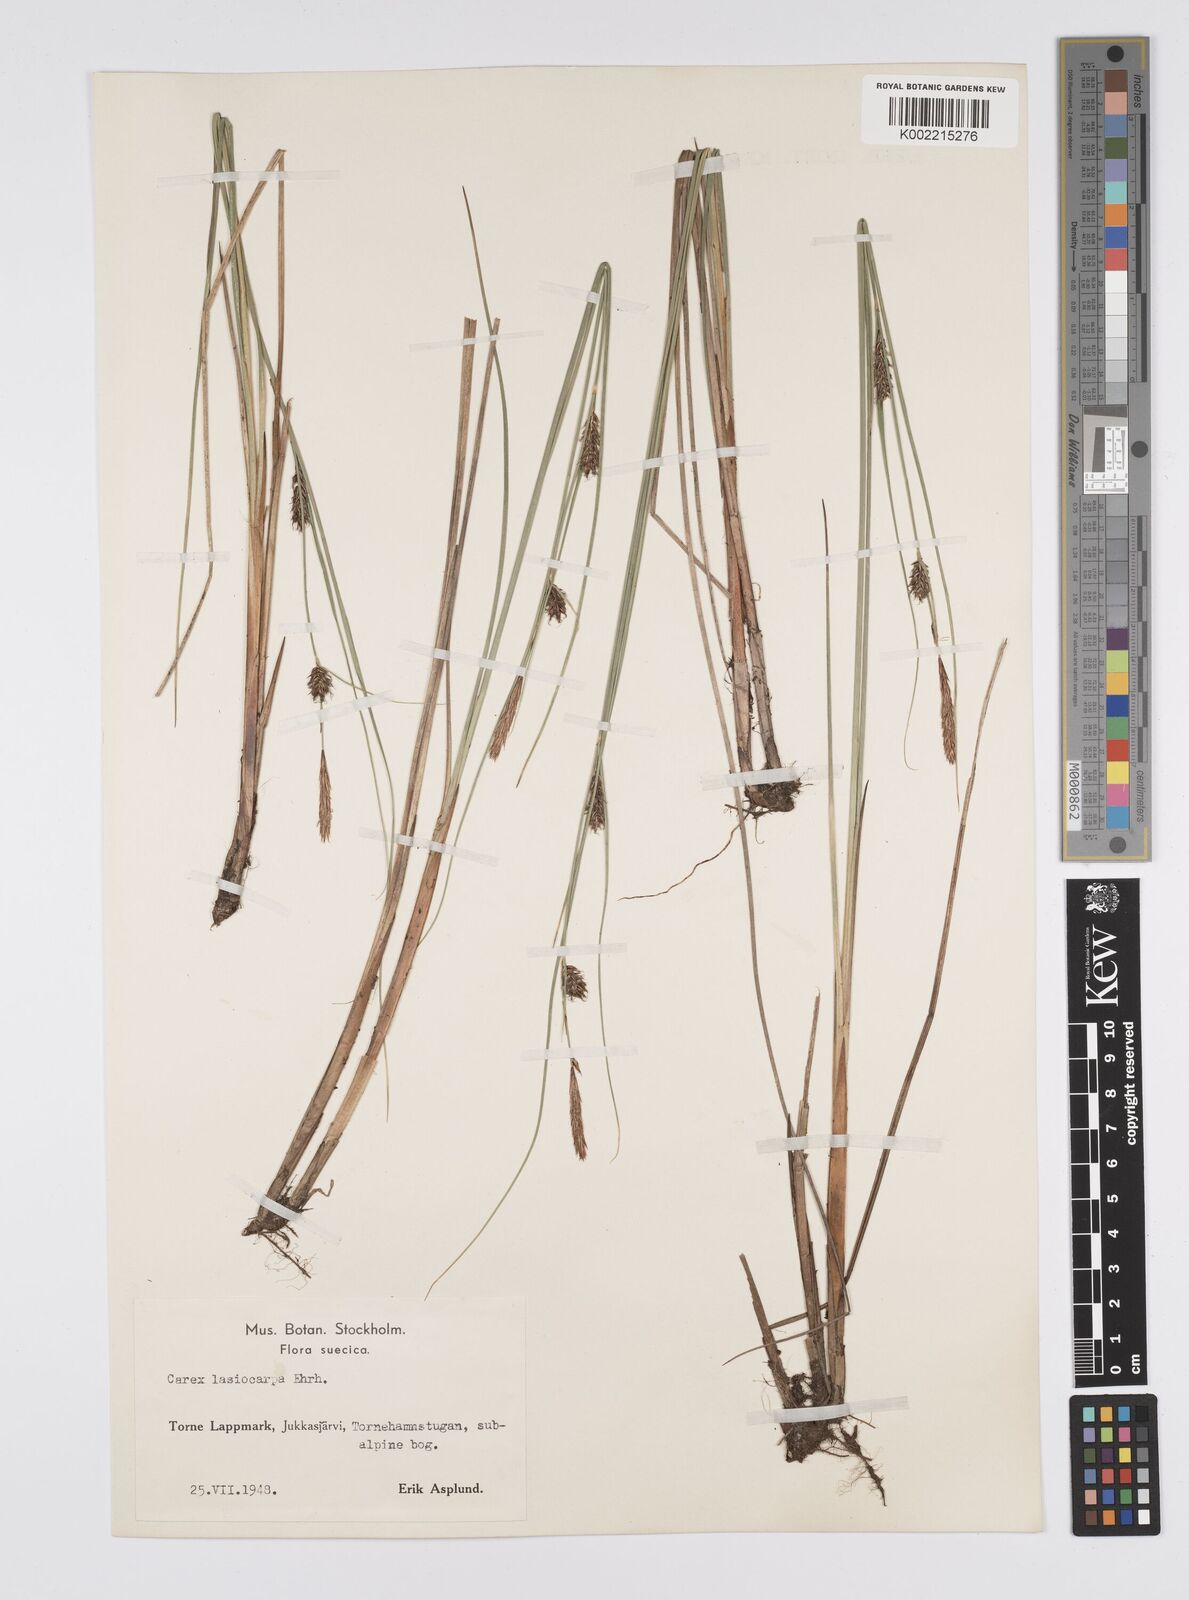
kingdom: Plantae
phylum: Tracheophyta
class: Liliopsida
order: Poales
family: Cyperaceae
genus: Carex
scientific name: Carex lasiocarpa
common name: Slender sedge
